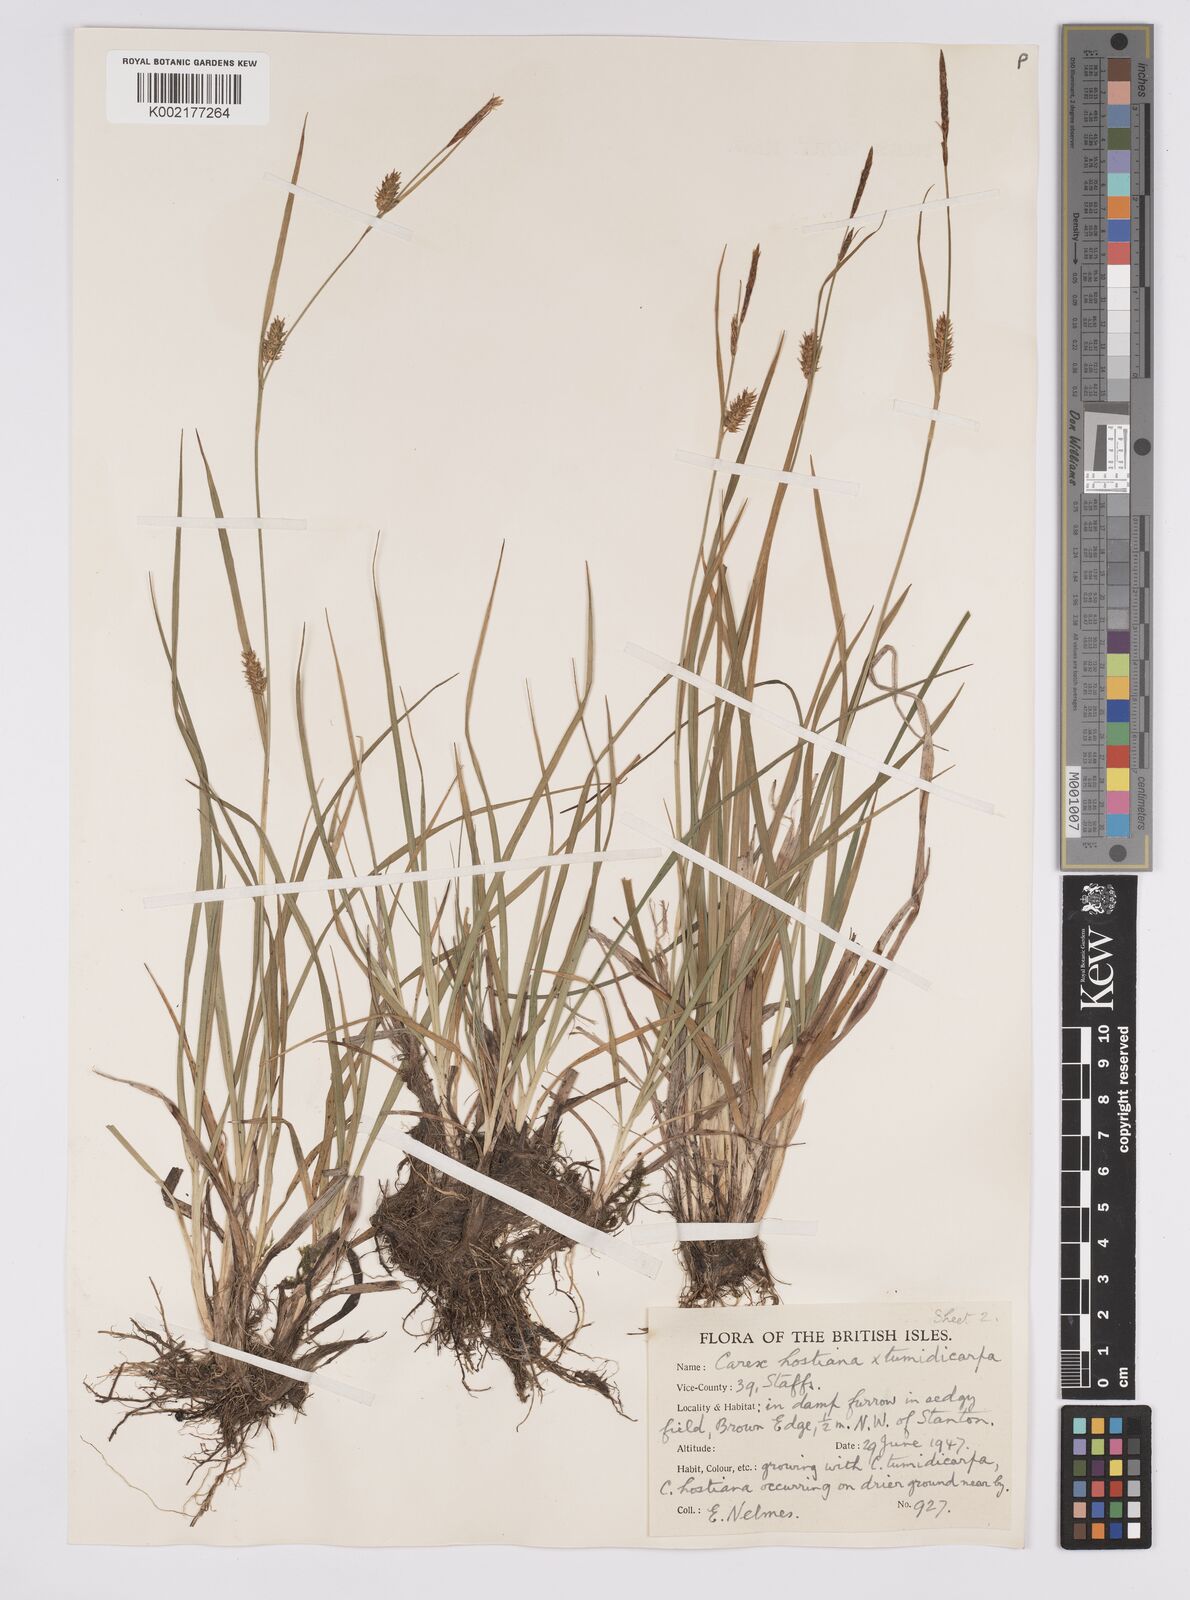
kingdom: Plantae
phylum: Tracheophyta
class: Liliopsida
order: Poales
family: Cyperaceae
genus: Carex
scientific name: Carex hostiana
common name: Tawny sedge
